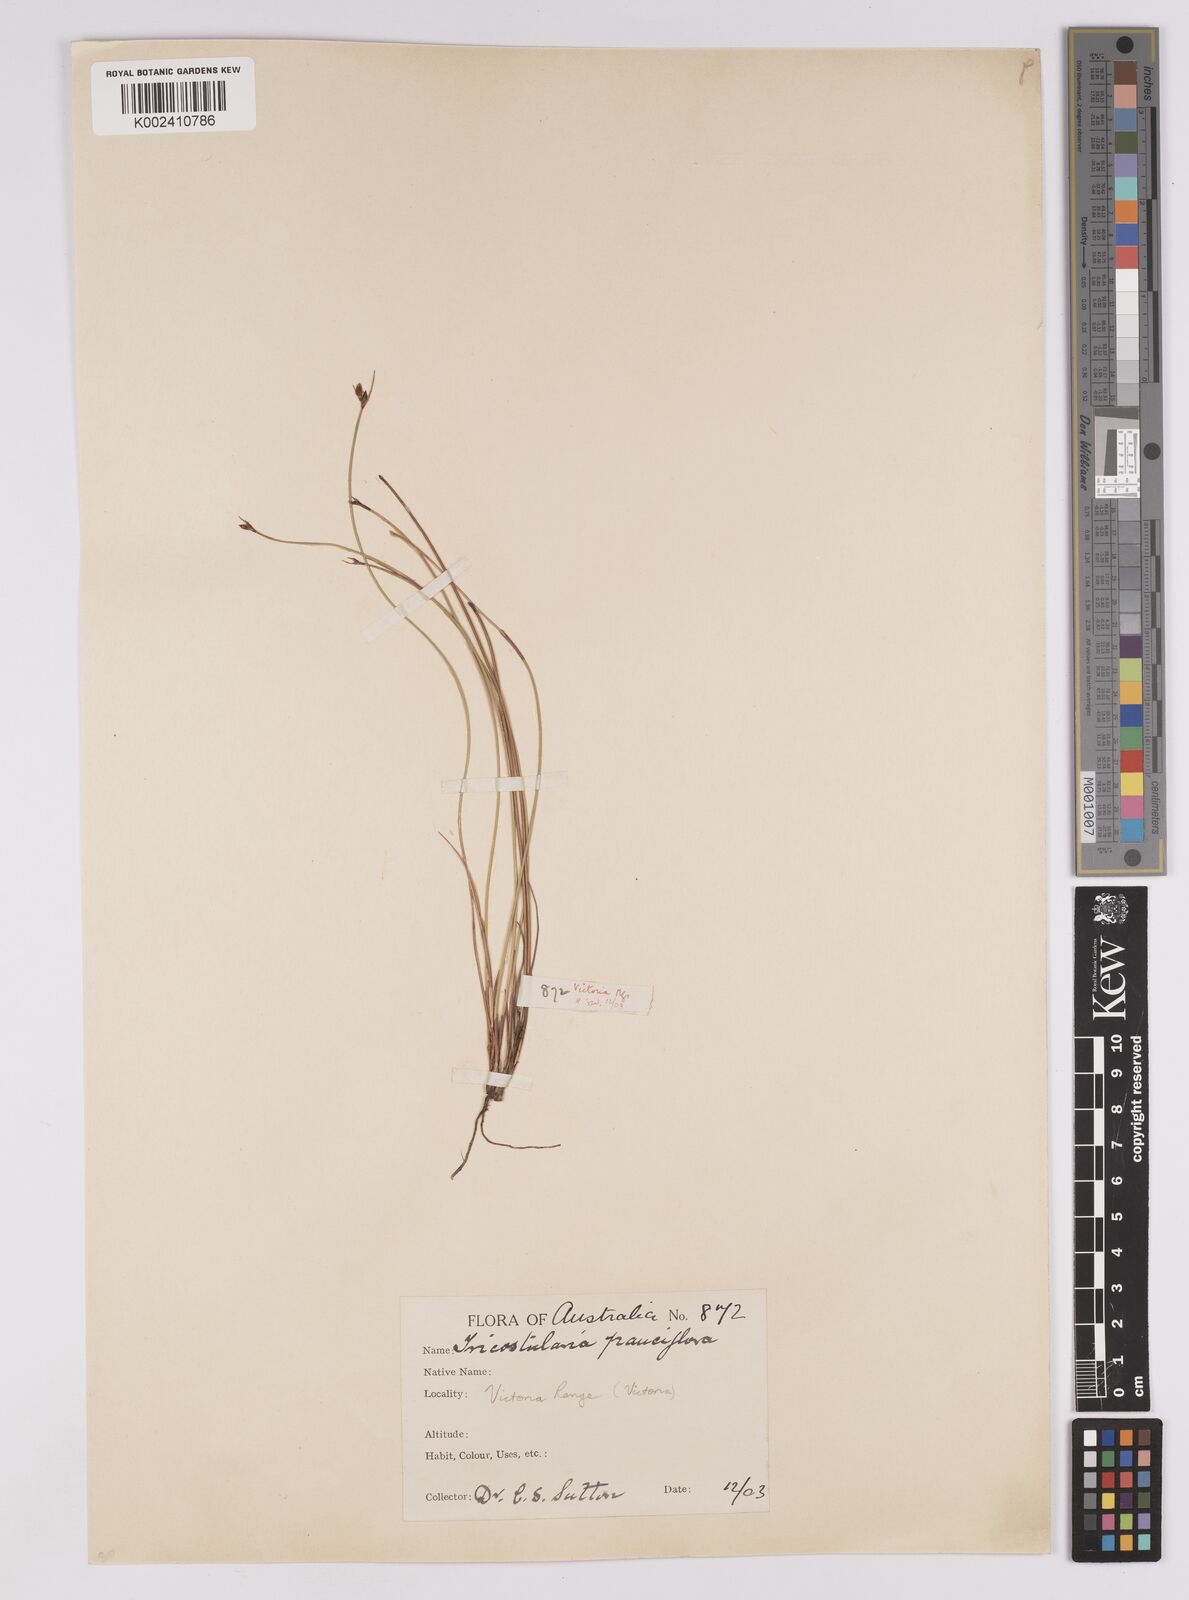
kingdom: Plantae
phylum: Tracheophyta
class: Liliopsida
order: Poales
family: Cyperaceae
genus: Tricostularia
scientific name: Tricostularia pauciflora
